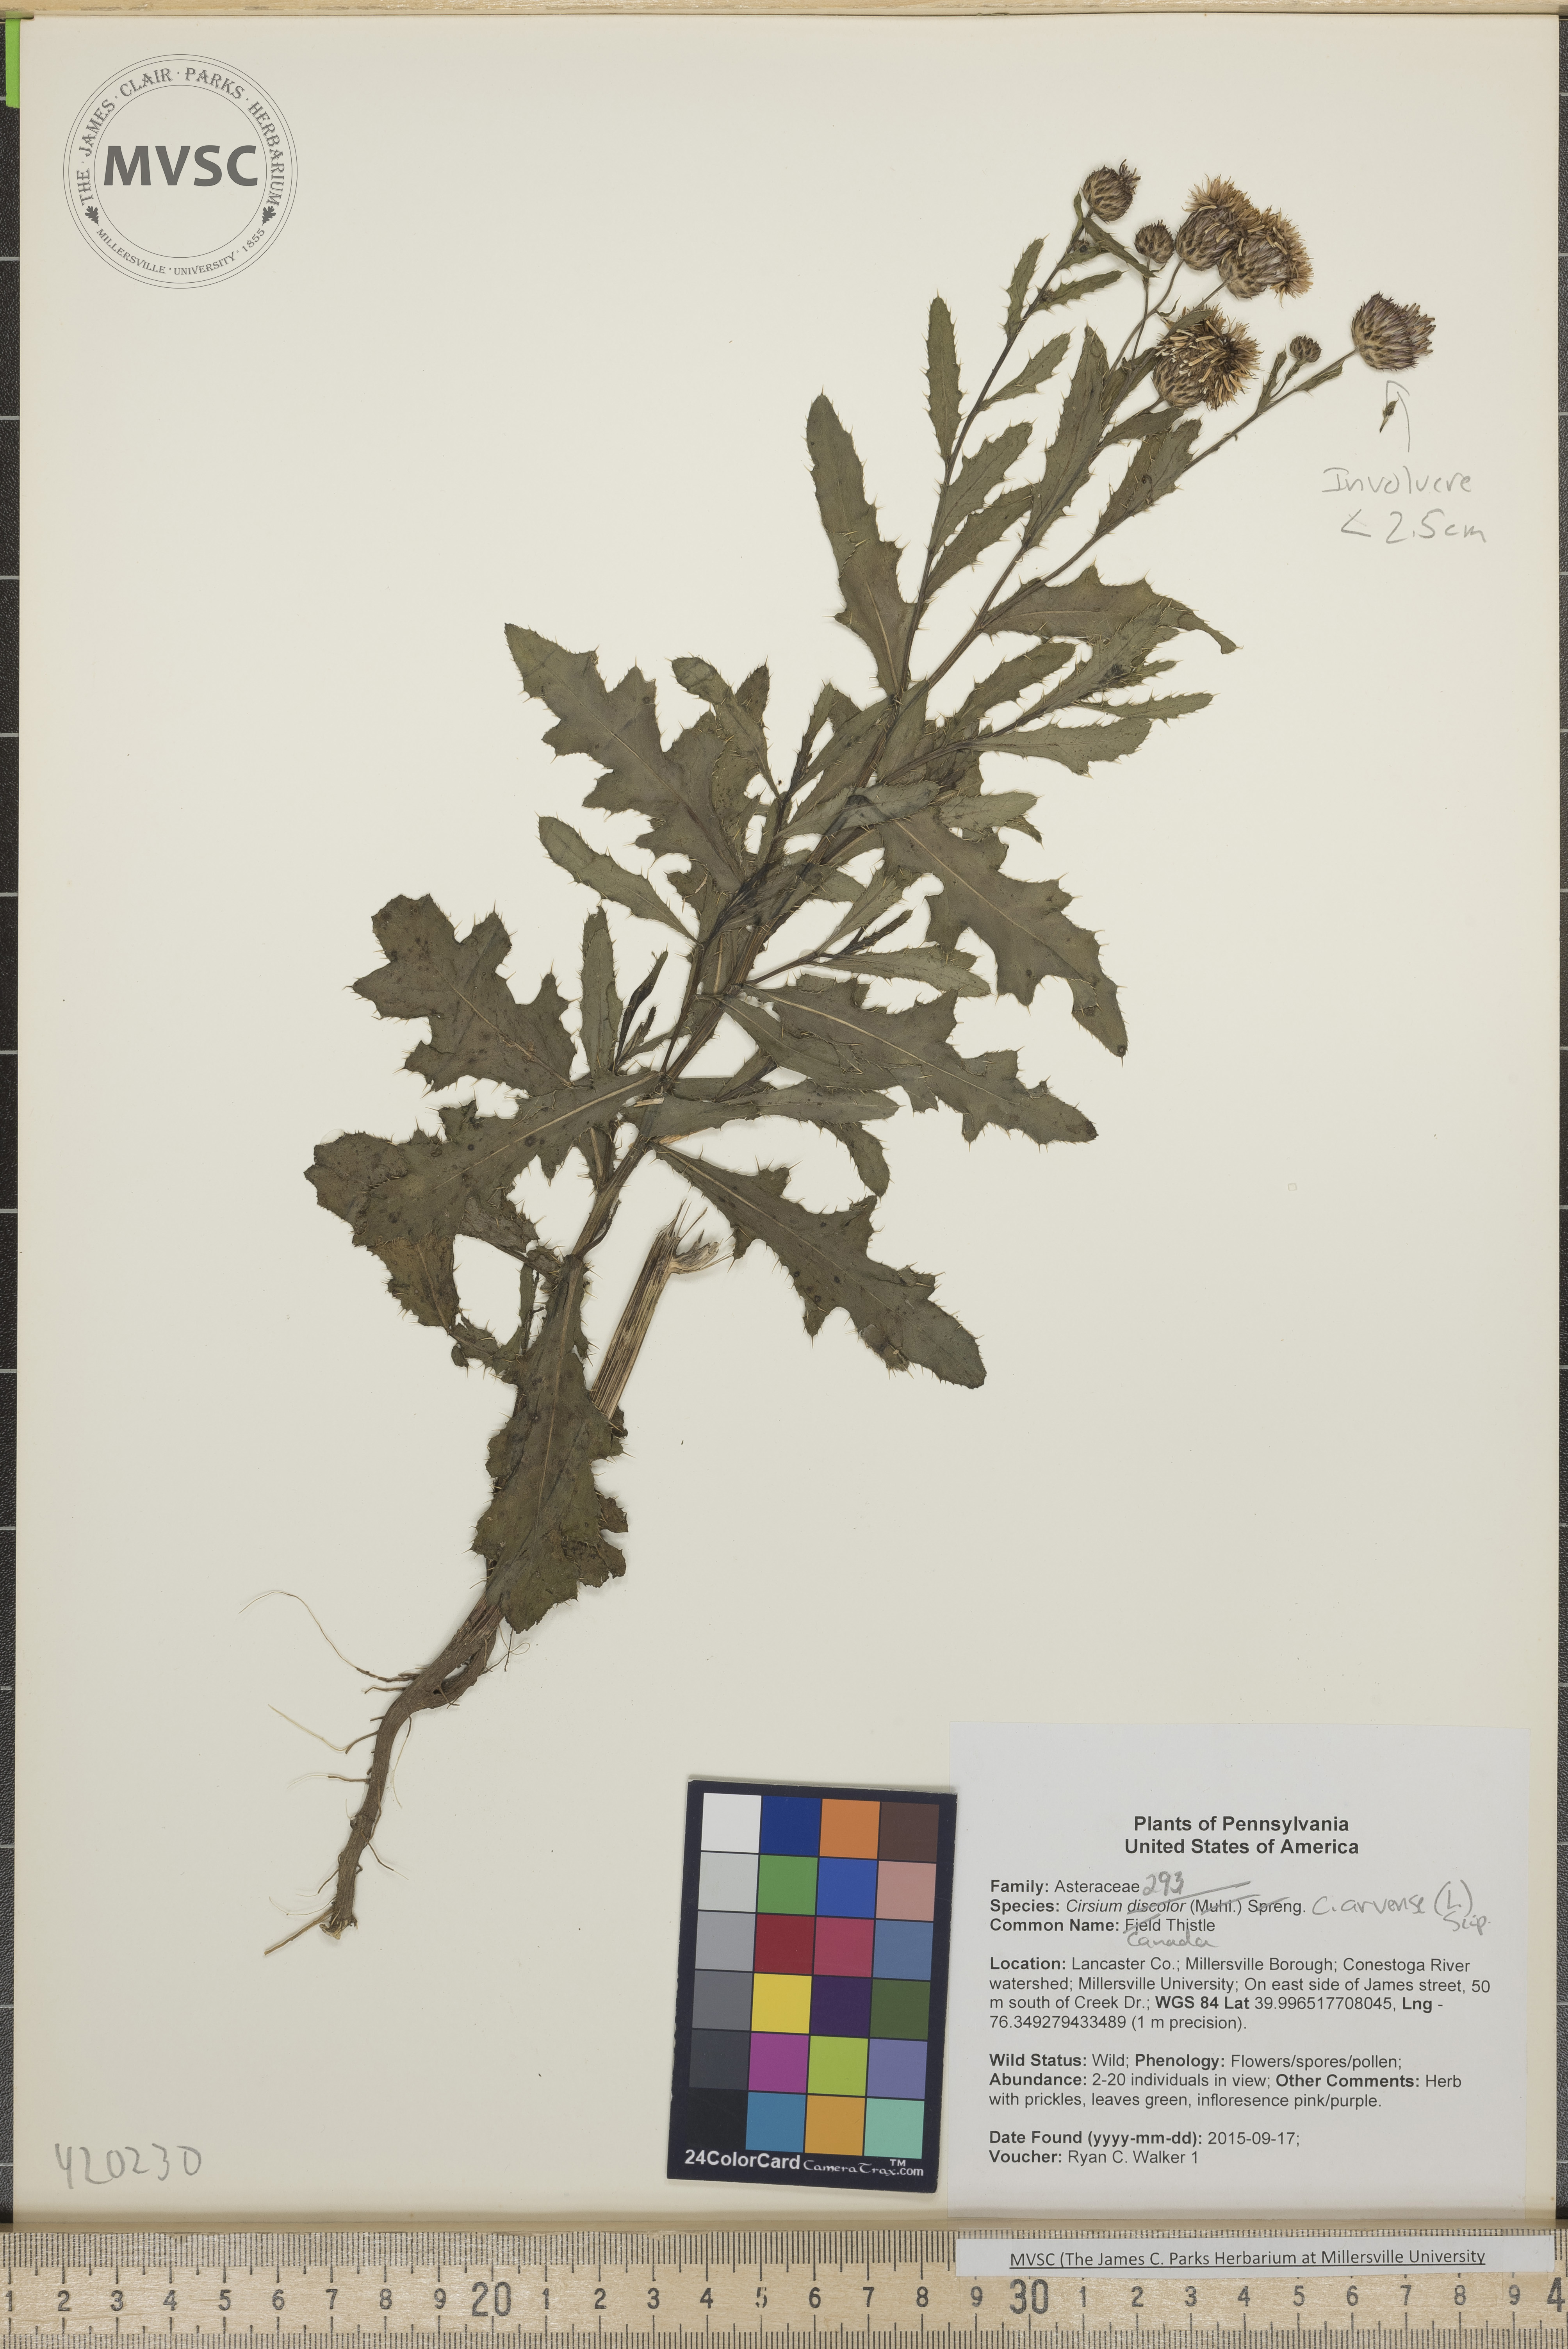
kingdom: Plantae
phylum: Tracheophyta
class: Magnoliopsida
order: Asterales
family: Asteraceae
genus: Cirsium
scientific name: Cirsium arvense
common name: Canada Thistle
